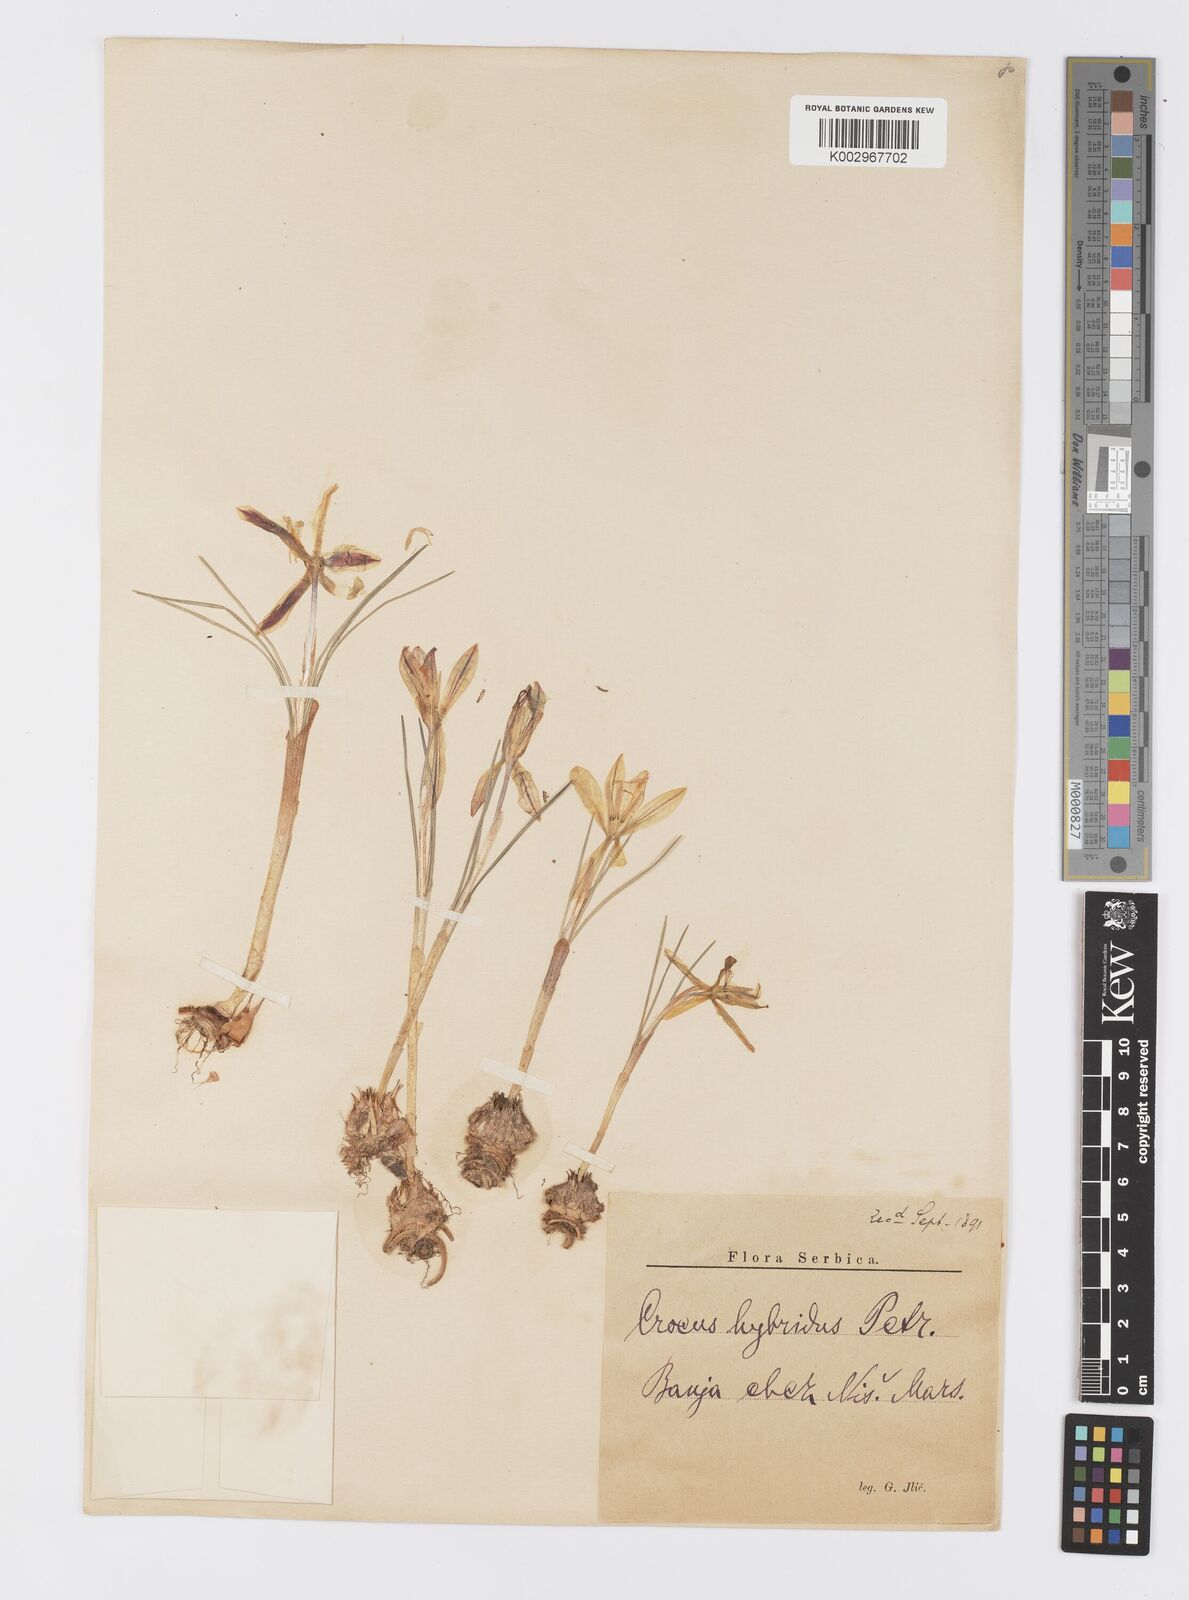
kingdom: Plantae
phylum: Tracheophyta
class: Liliopsida
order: Asparagales
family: Iridaceae
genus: Crocus
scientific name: Crocus adami
